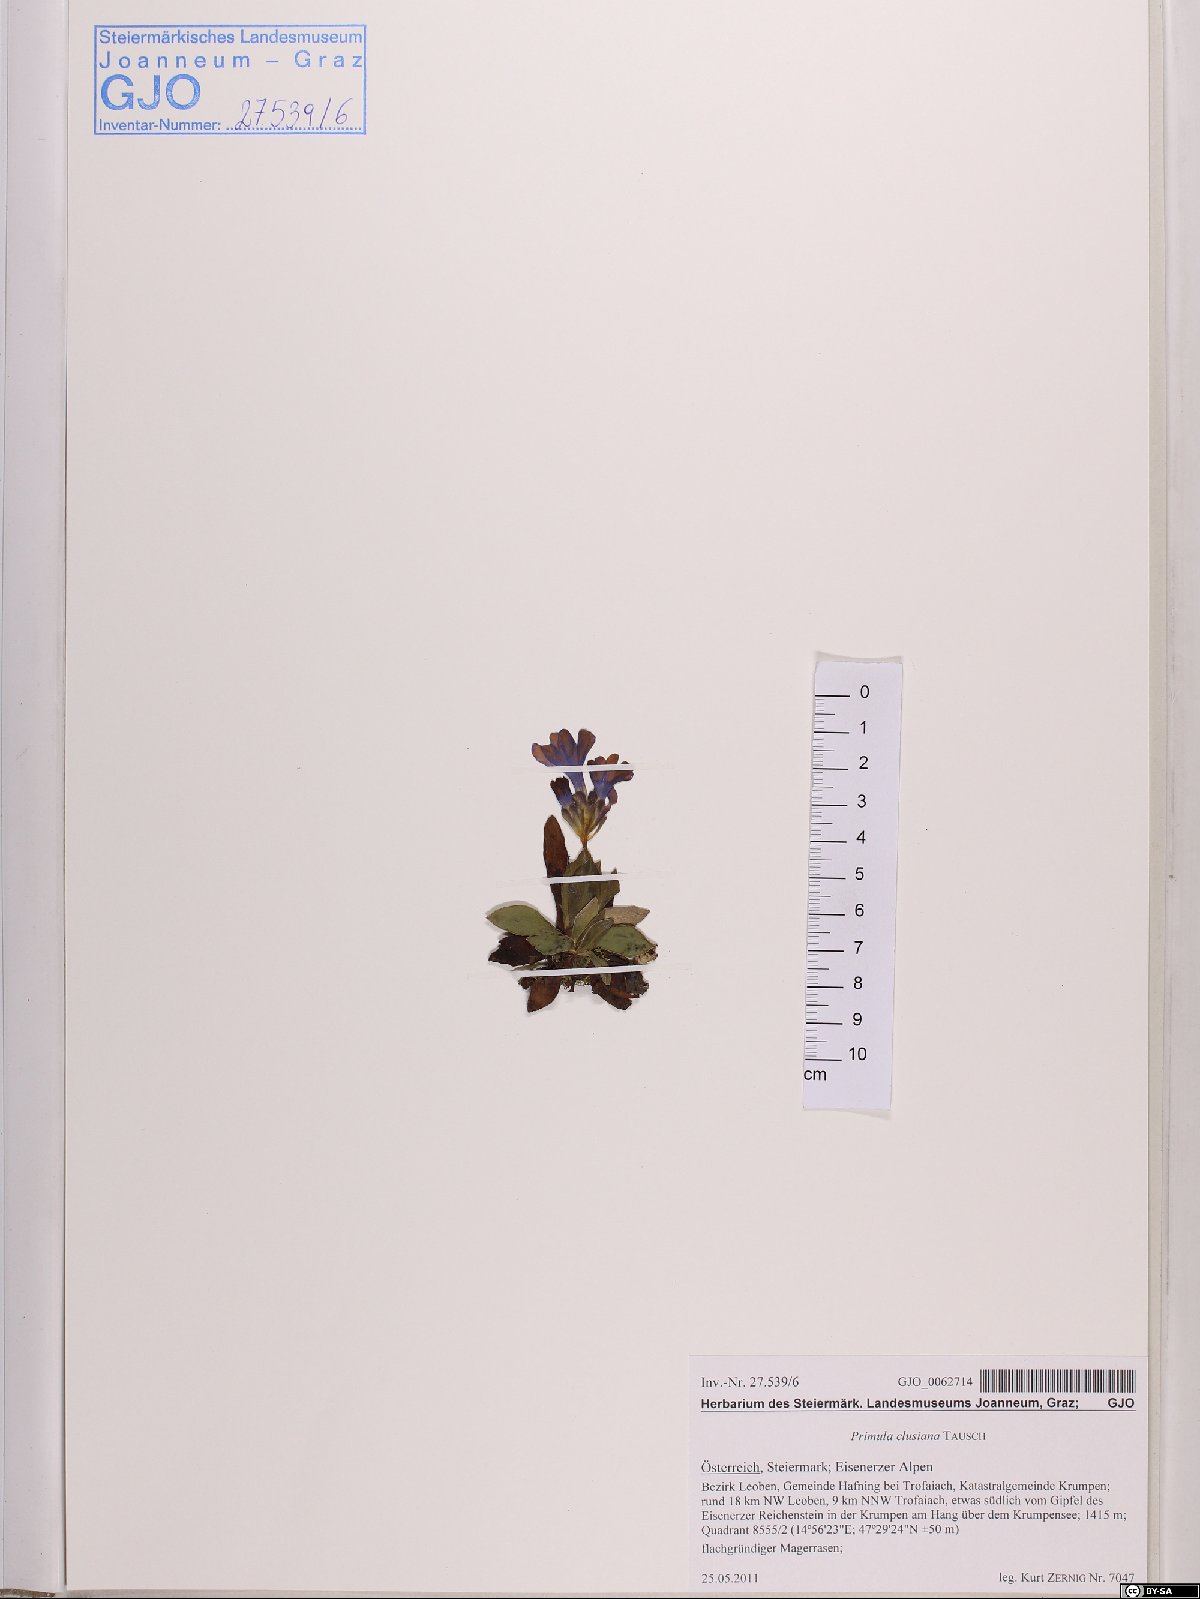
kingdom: Plantae
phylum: Tracheophyta
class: Magnoliopsida
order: Ericales
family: Primulaceae
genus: Primula
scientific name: Primula clusiana
